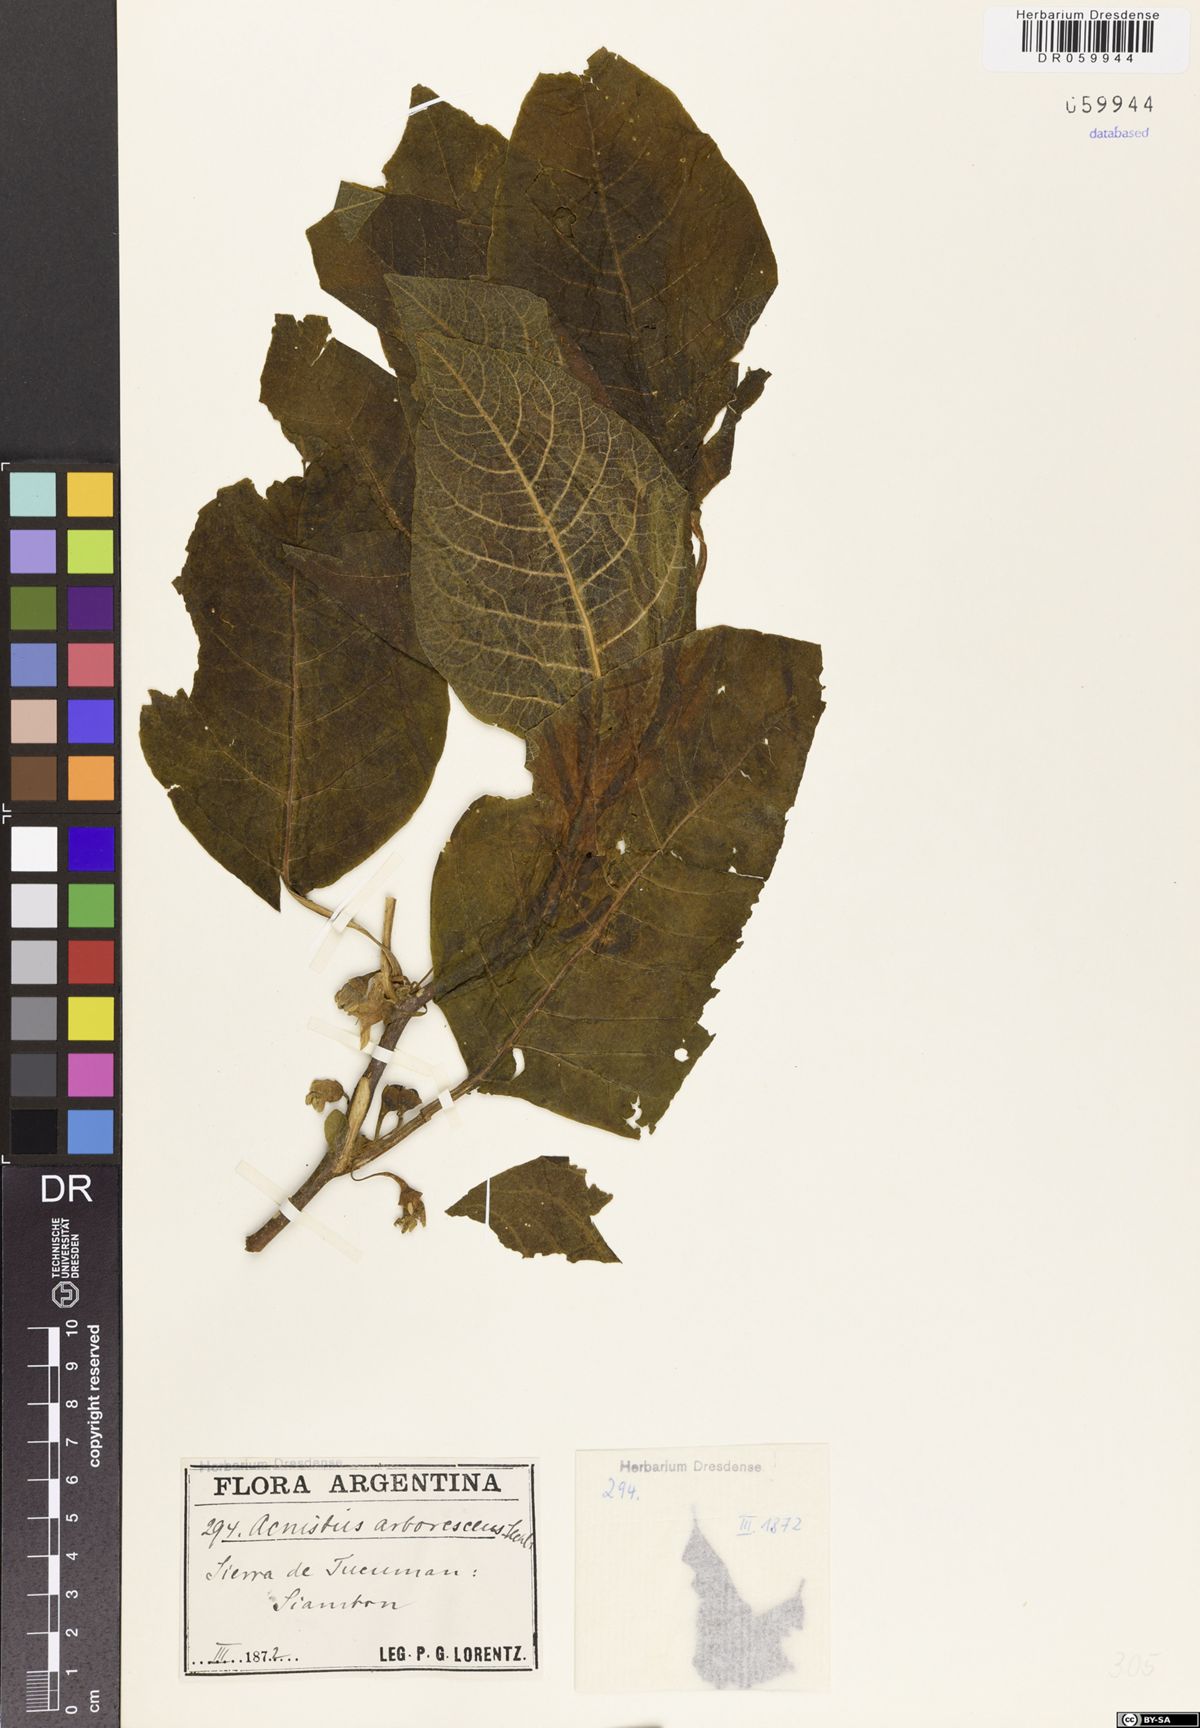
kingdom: Plantae
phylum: Tracheophyta
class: Magnoliopsida
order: Solanales
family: Solanaceae
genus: Eriolarynx
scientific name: Eriolarynx lorentzii
